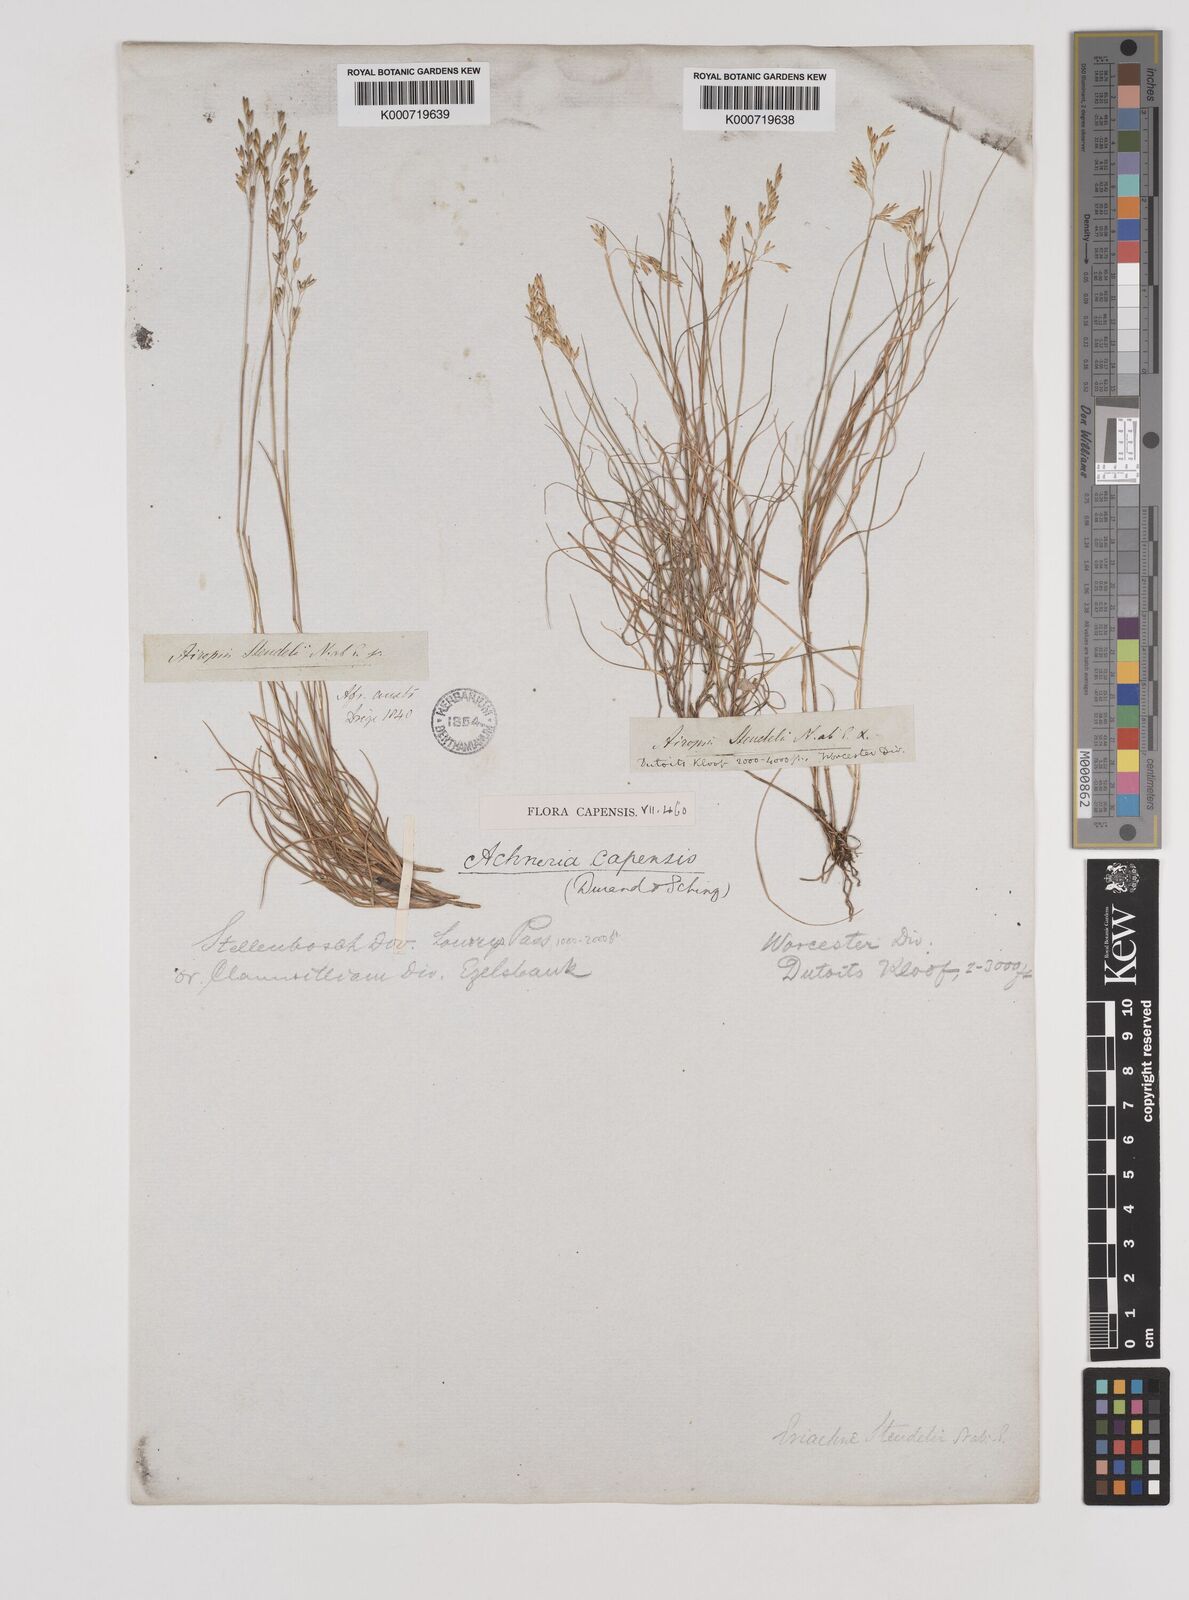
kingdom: Plantae
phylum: Tracheophyta
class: Liliopsida
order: Poales
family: Poaceae
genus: Pentameris
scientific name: Pentameris malouinensis
